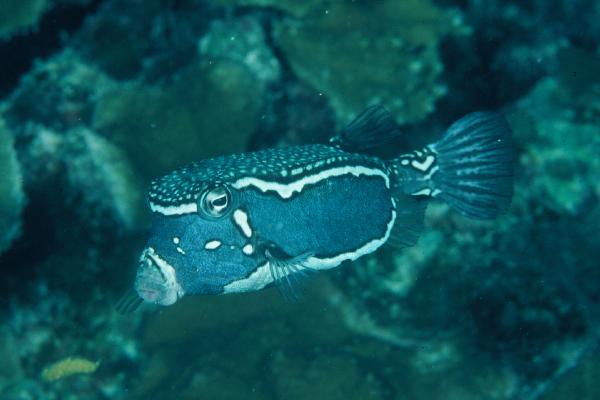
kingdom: Animalia
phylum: Chordata
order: Tetraodontiformes
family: Ostraciidae
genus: Ostracion
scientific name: Ostracion whitleyi
